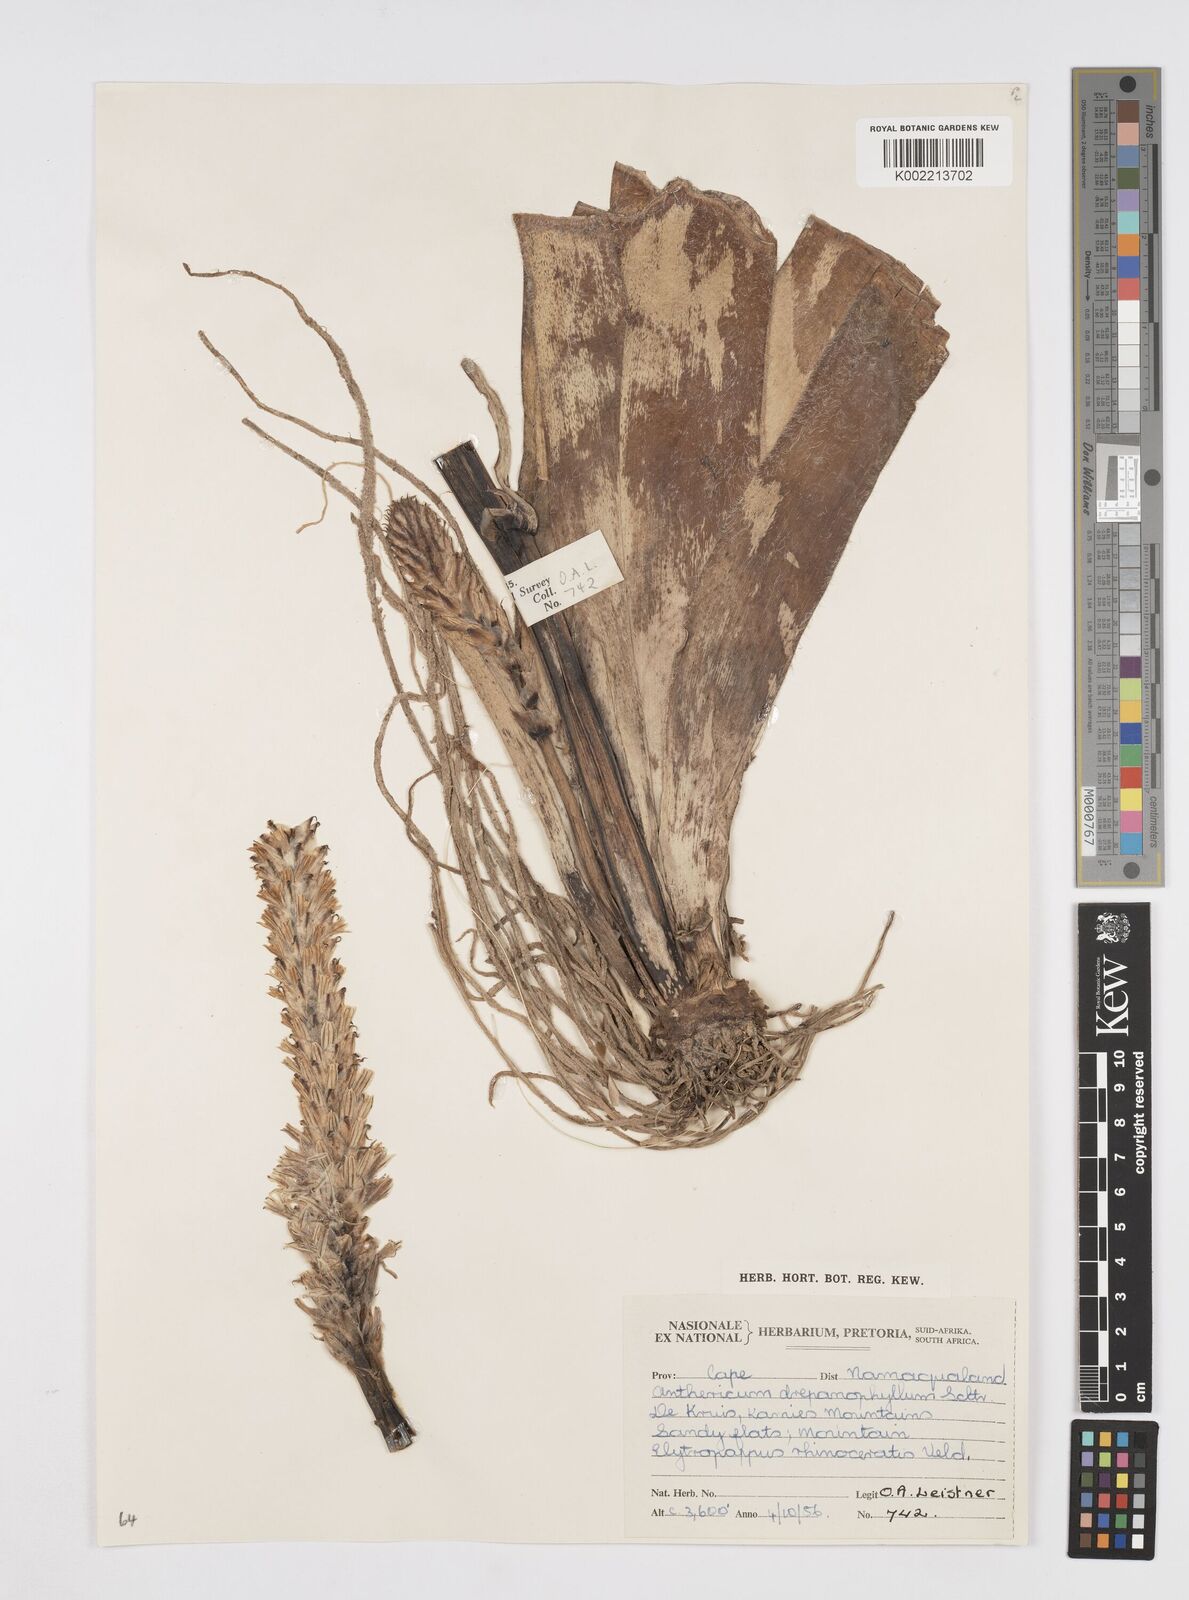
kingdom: Plantae
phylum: Tracheophyta
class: Liliopsida
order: Asparagales
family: Asphodelaceae
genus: Trachyandra
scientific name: Trachyandra falcata
